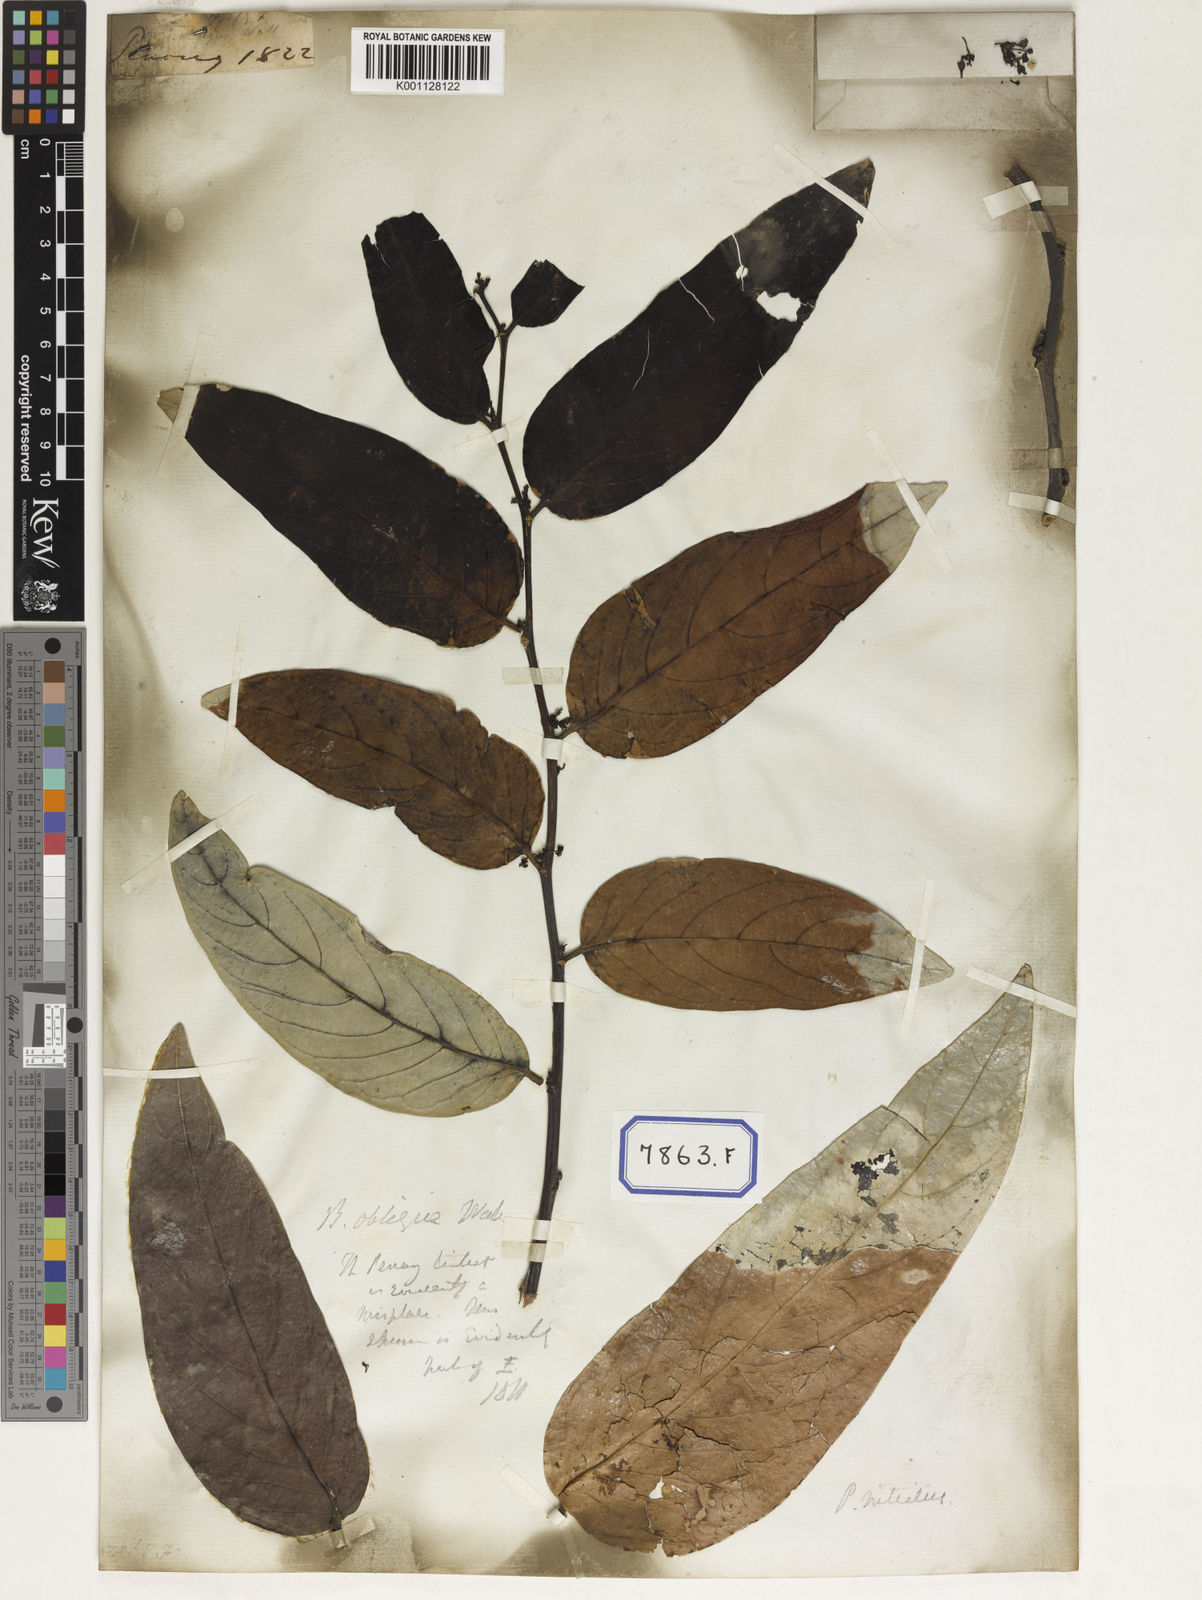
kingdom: Plantae
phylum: Tracheophyta
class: Magnoliopsida
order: Malpighiales
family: Euphorbiaceae
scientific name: Euphorbiaceae
